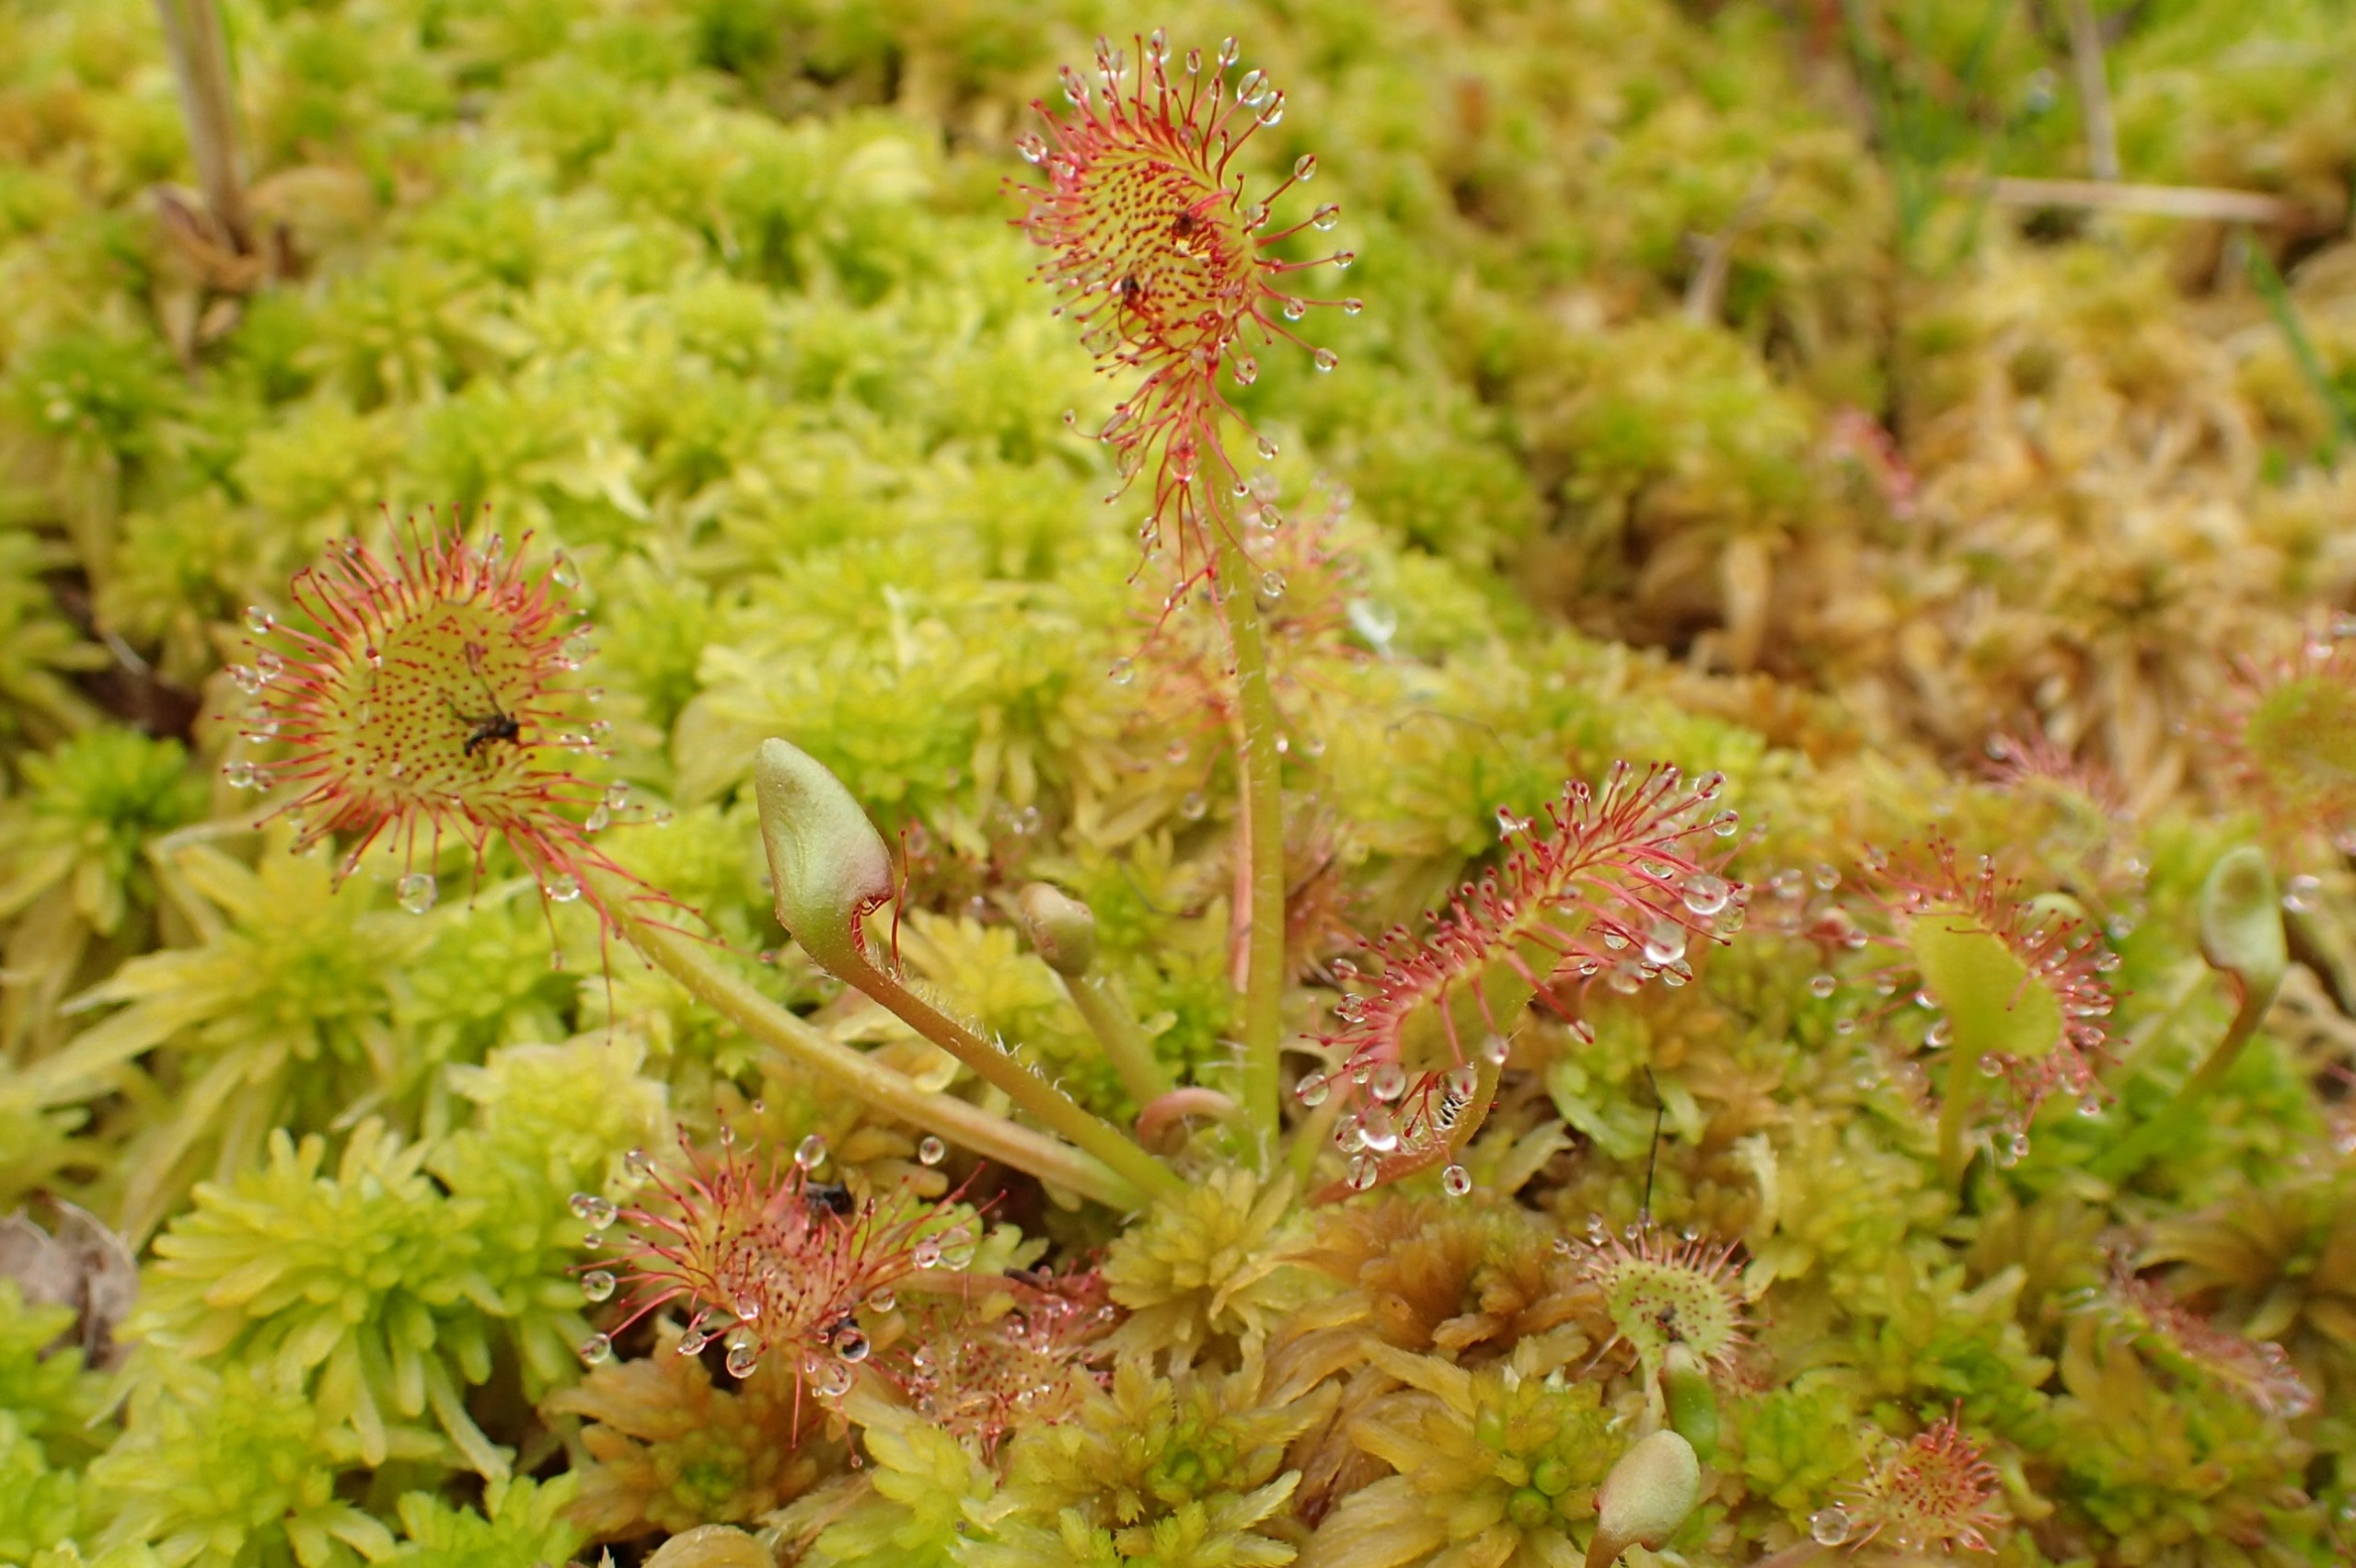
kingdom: Plantae
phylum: Tracheophyta
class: Magnoliopsida
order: Caryophyllales
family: Droseraceae
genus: Drosera
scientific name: Drosera rotundifolia
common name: Rundbladet soldug
